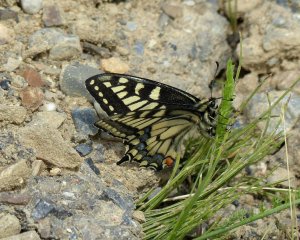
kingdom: Animalia
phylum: Arthropoda
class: Insecta
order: Lepidoptera
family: Papilionidae
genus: Papilio
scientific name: Papilio machaon
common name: Old World Swallowtail
